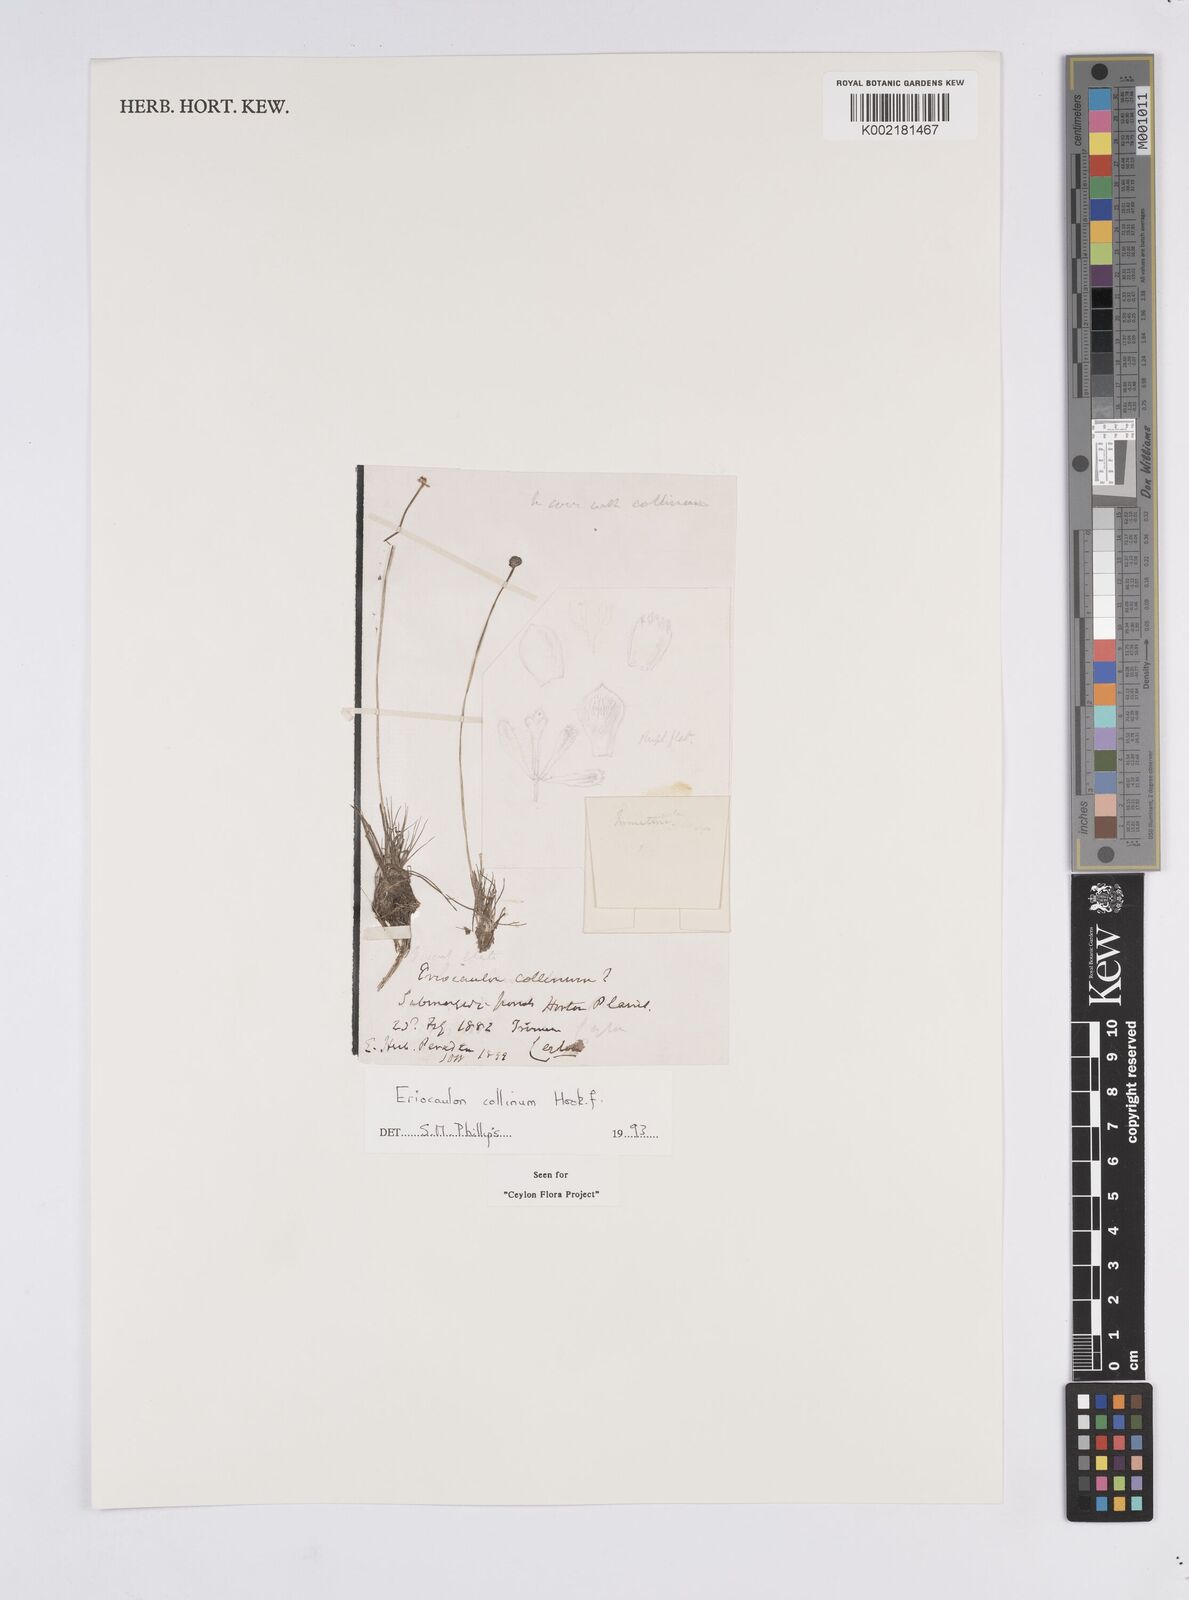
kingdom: Plantae
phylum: Tracheophyta
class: Liliopsida
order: Poales
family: Eriocaulaceae
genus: Eriocaulon
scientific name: Eriocaulon odoratum
